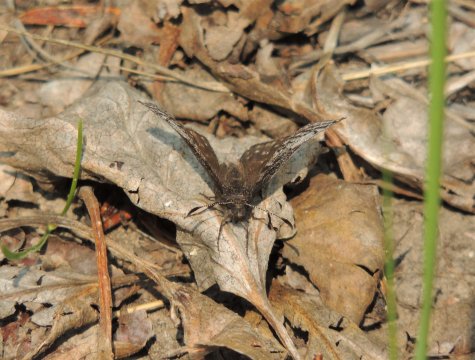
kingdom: Animalia
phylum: Arthropoda
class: Insecta
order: Lepidoptera
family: Hesperiidae
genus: Erynnis
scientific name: Erynnis icelus
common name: Dreamy Duskywing
